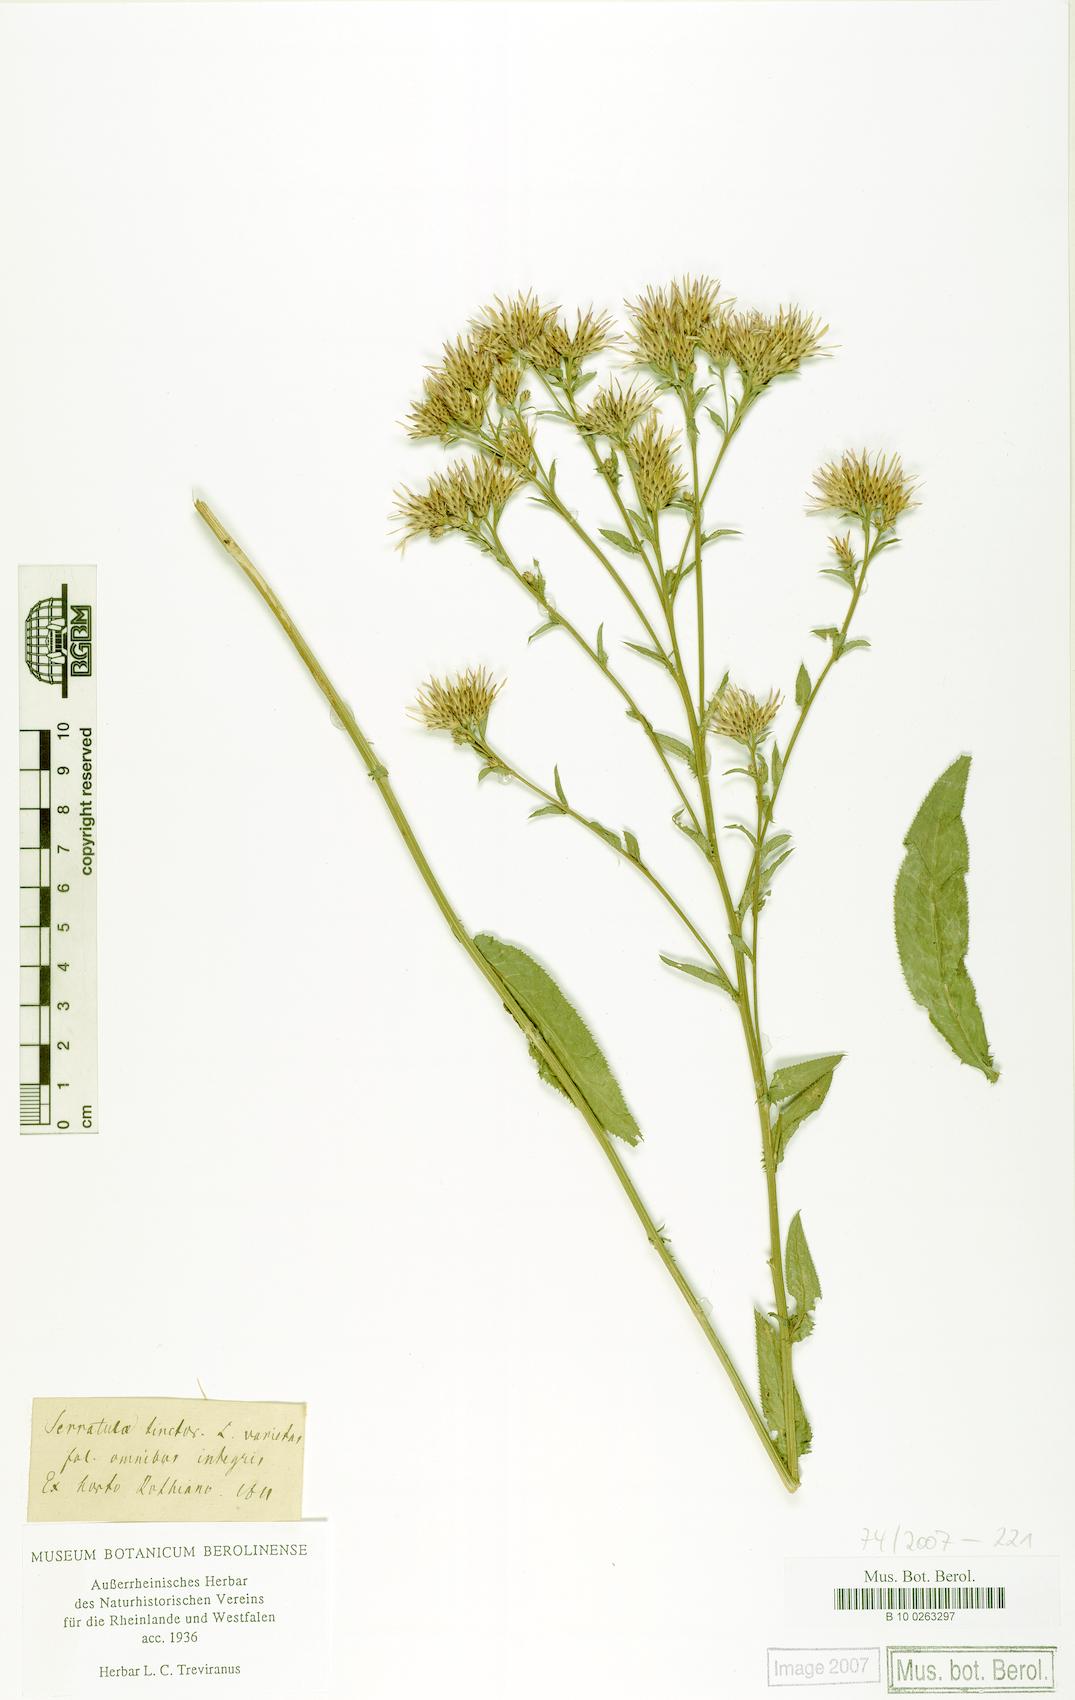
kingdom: Plantae
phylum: Tracheophyta
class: Magnoliopsida
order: Asterales
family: Asteraceae
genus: Serratula
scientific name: Serratula tinctoria
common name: Saw-wort
